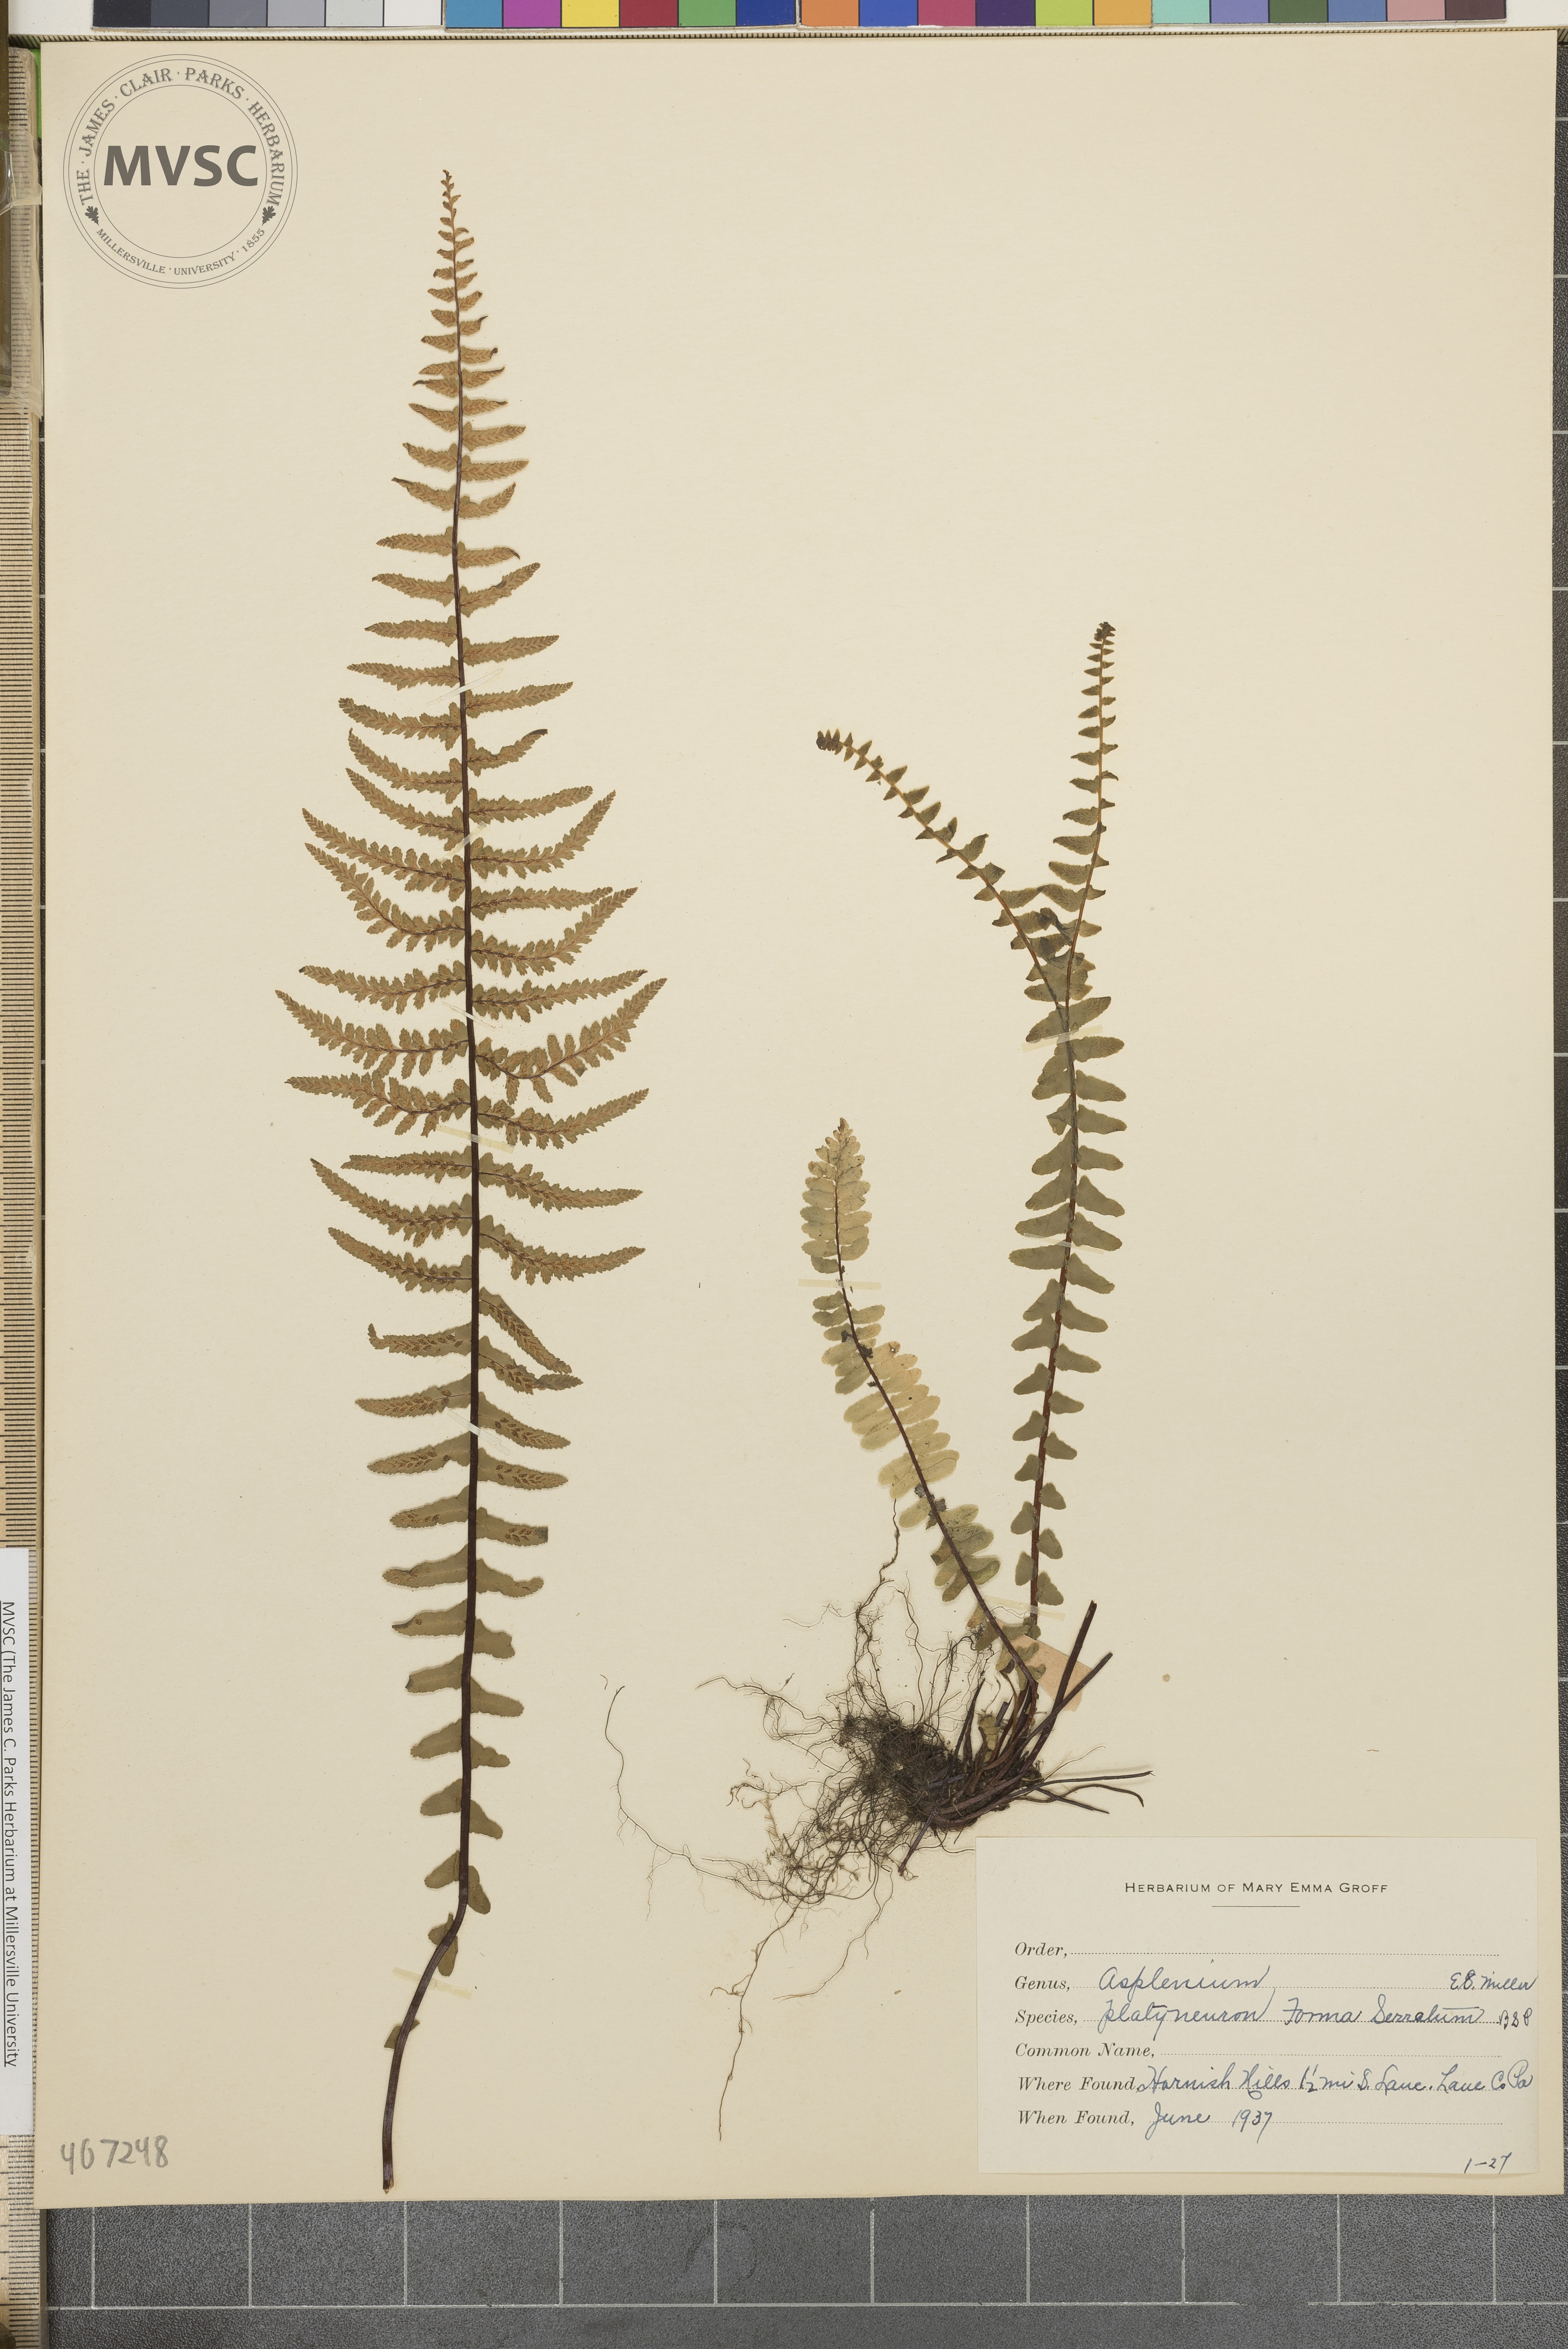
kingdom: Plantae
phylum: Tracheophyta
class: Polypodiopsida
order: Polypodiales
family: Aspleniaceae
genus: Asplenium
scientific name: Asplenium platyneuron
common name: Ebony spleenwort
